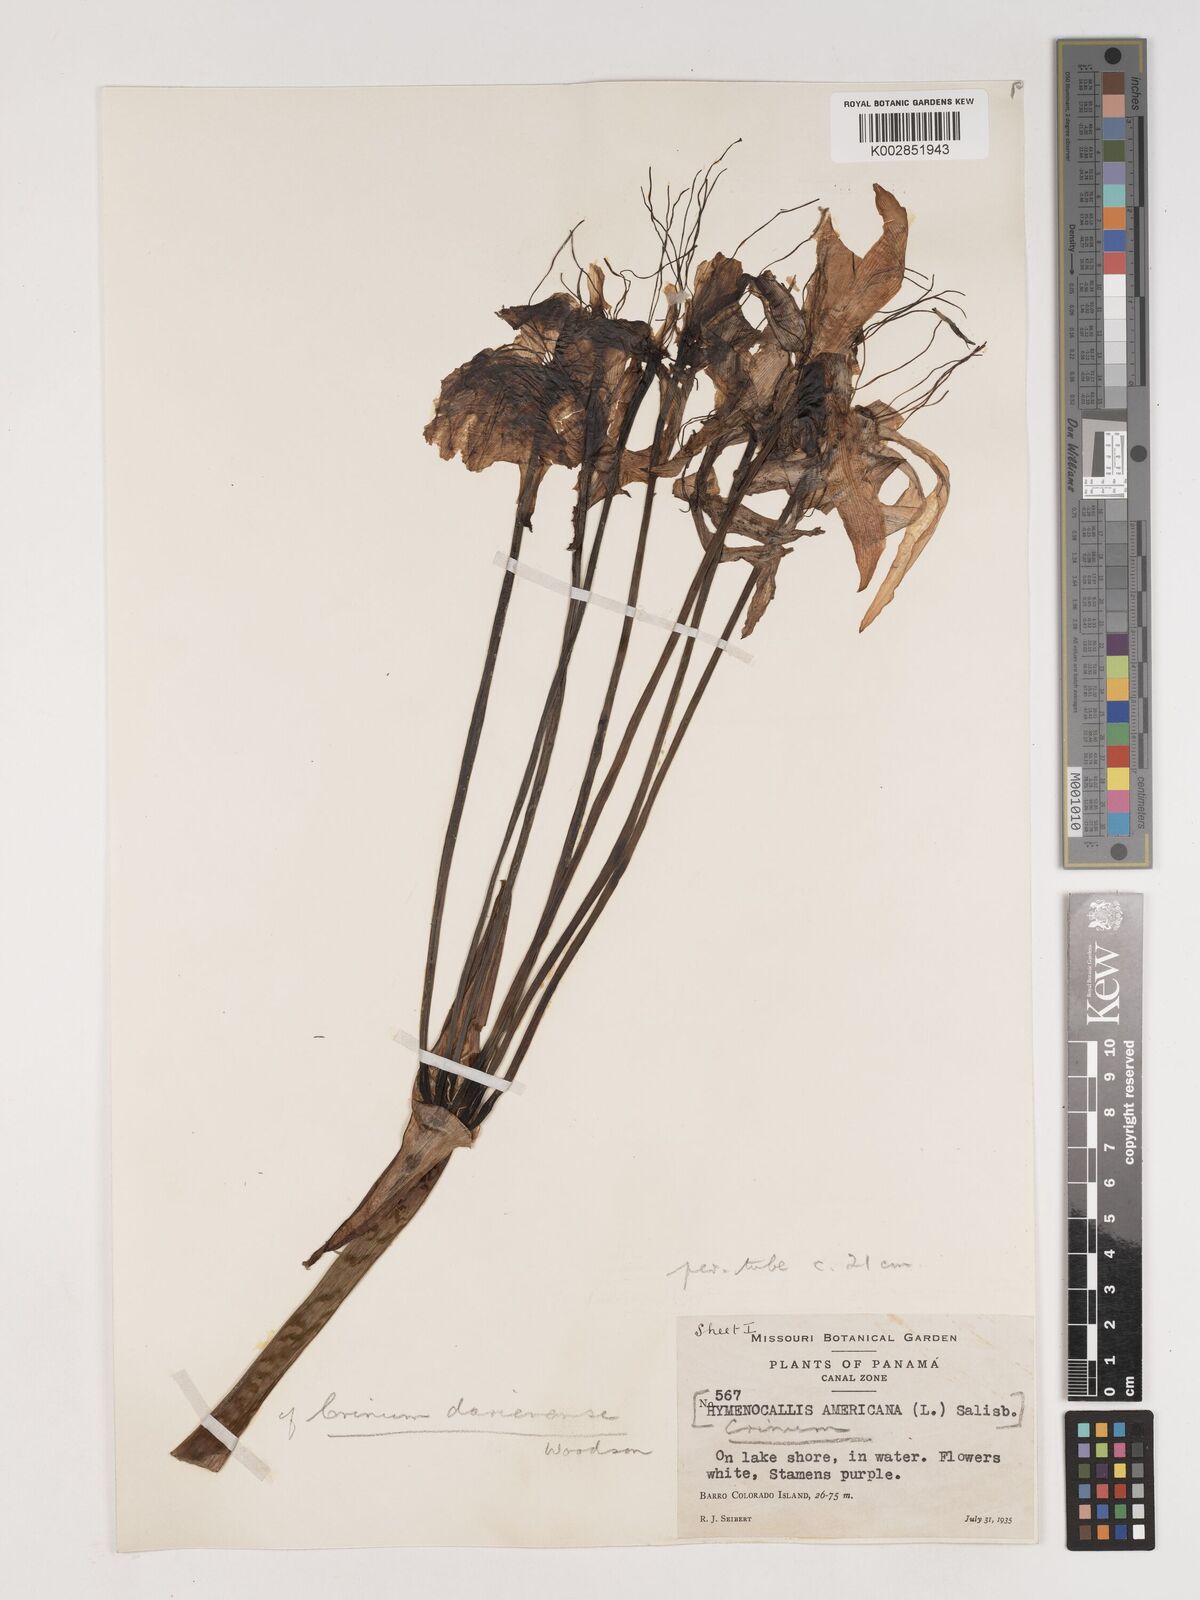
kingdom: Plantae
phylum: Tracheophyta
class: Liliopsida
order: Asparagales
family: Amaryllidaceae
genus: Crinum
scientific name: Crinum kunthianum
